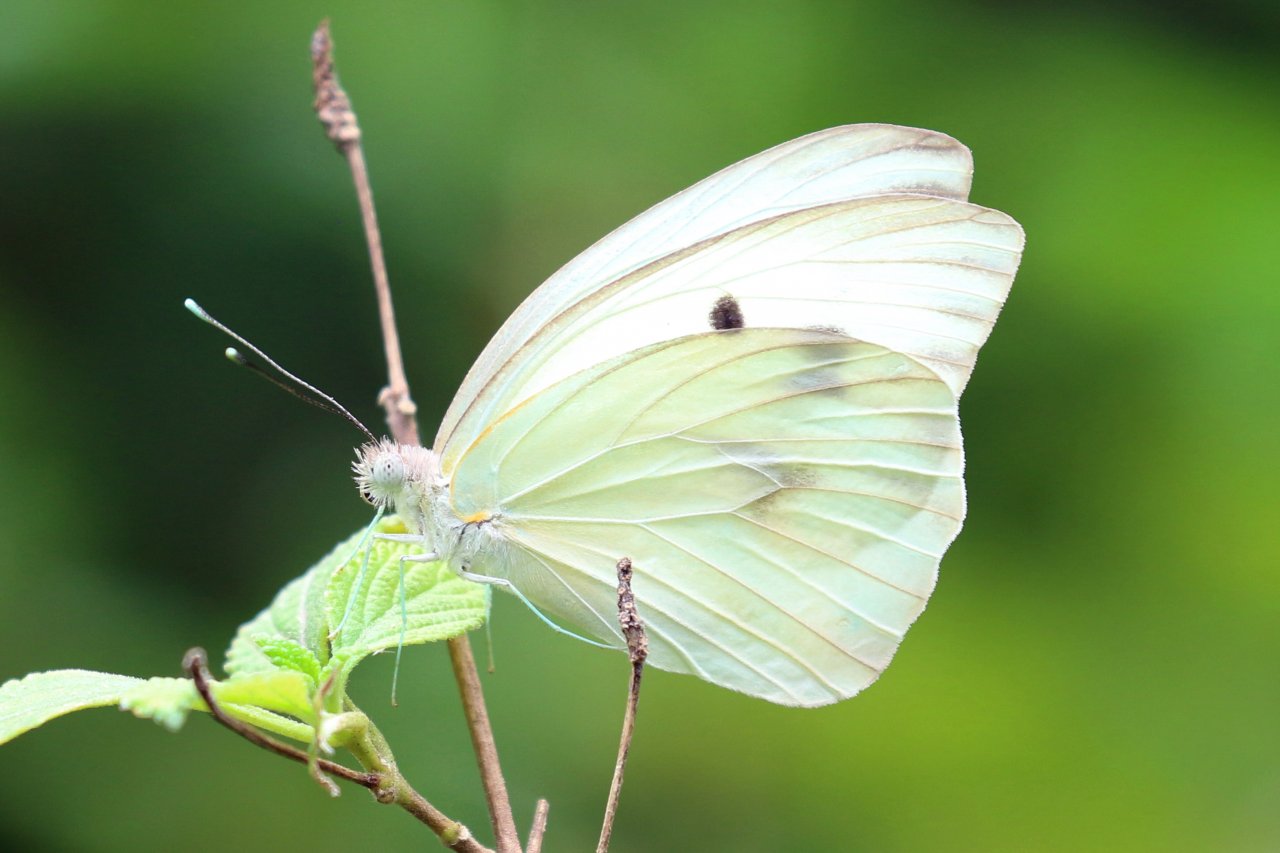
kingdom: Animalia
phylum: Arthropoda
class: Insecta
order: Lepidoptera
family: Pieridae
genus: Ganyra
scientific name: Ganyra josephina
